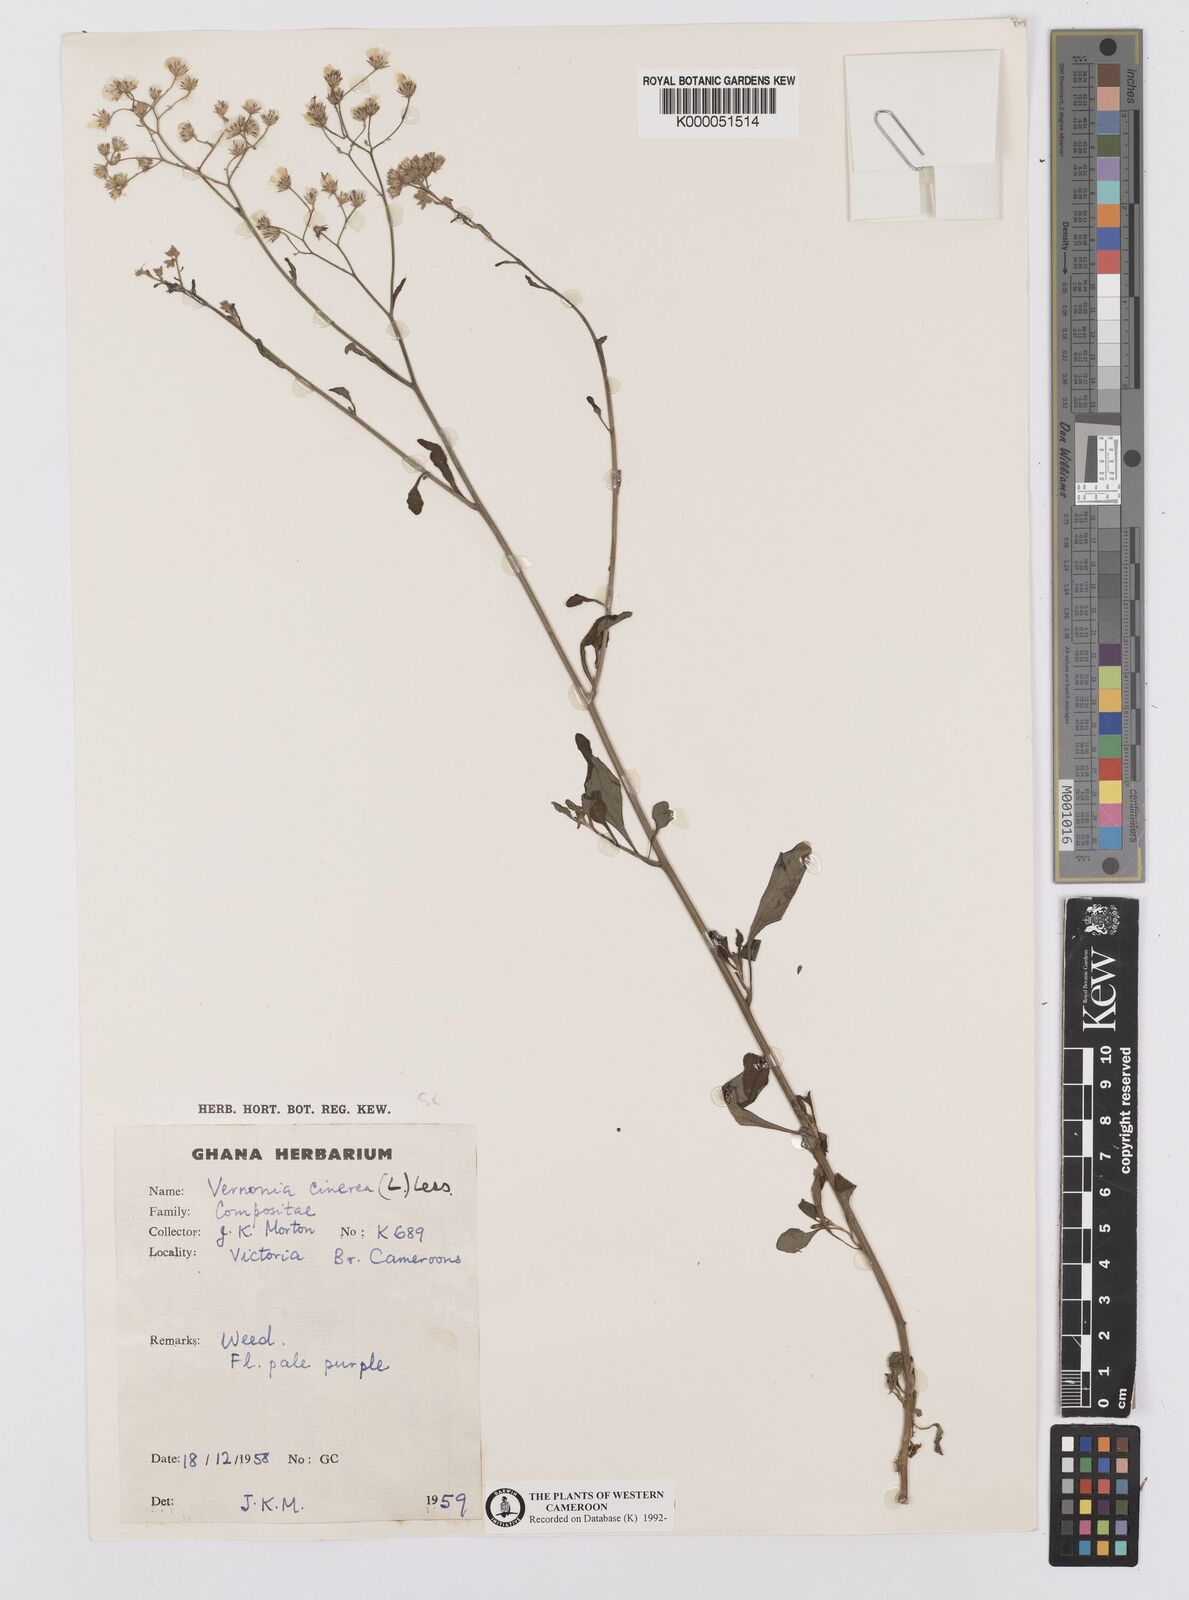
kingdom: Plantae
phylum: Tracheophyta
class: Magnoliopsida
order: Asterales
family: Asteraceae
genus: Cyanthillium
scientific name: Cyanthillium cinereum
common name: Little ironweed
